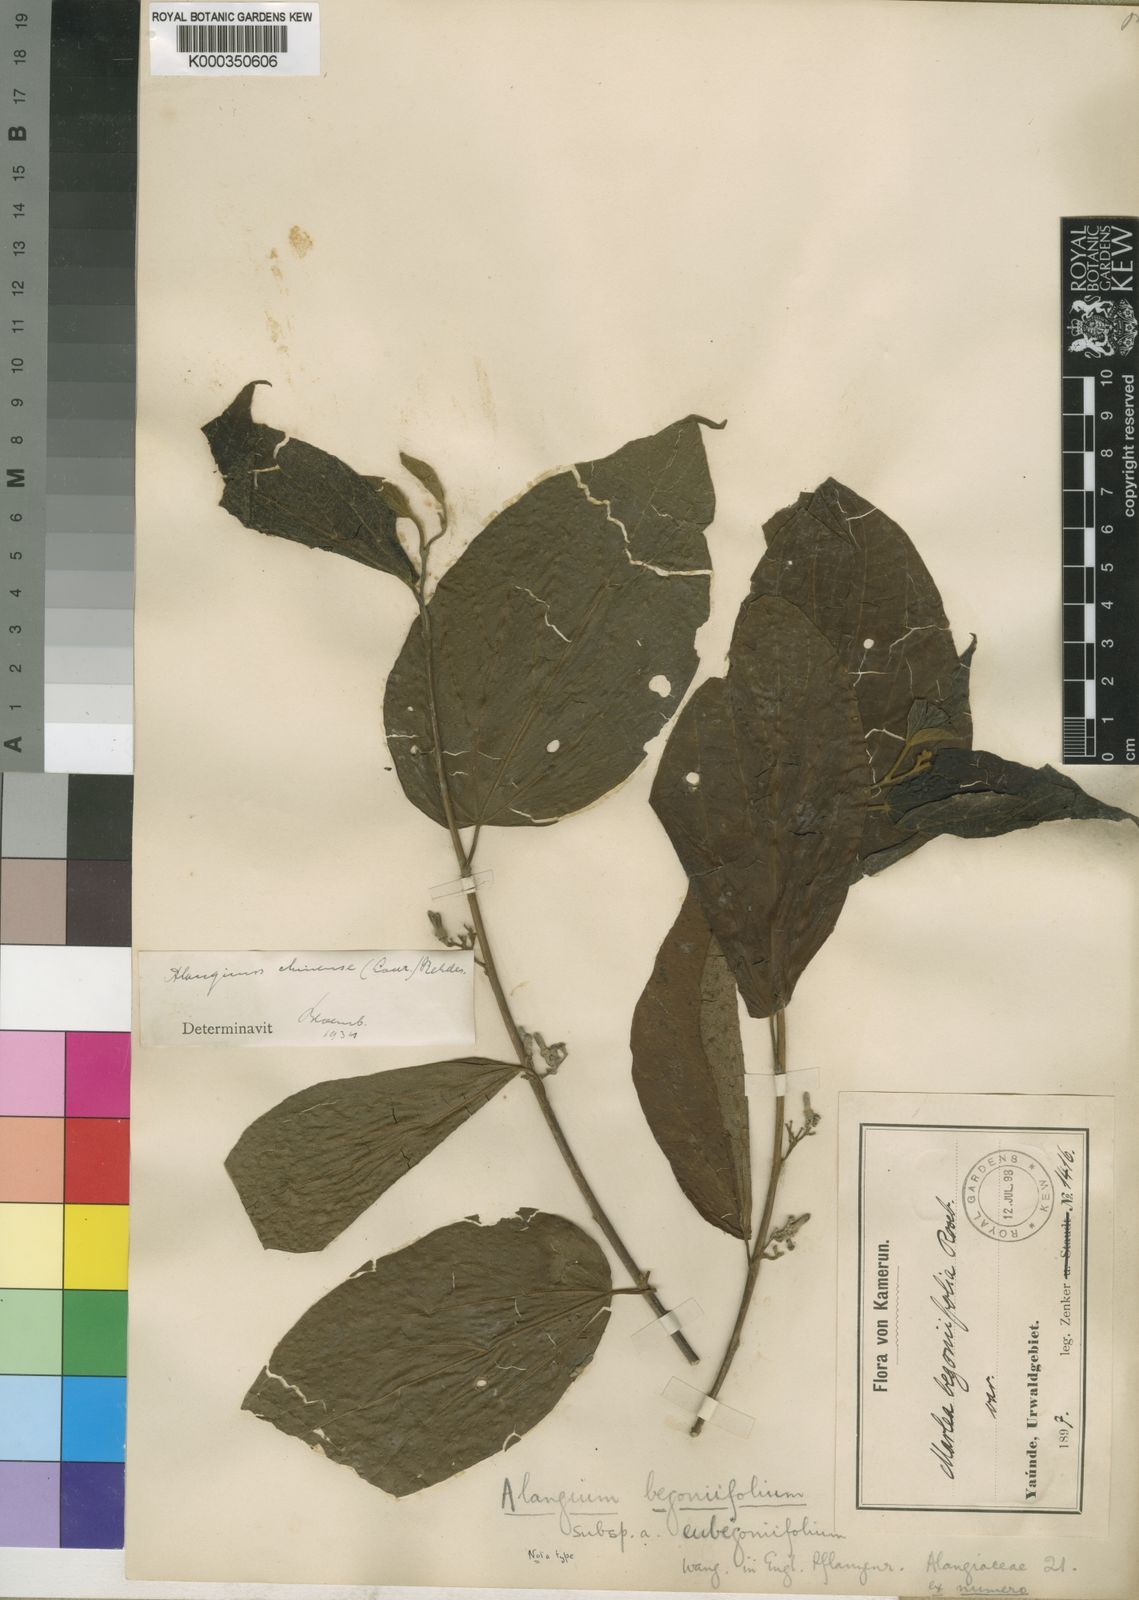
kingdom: Plantae
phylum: Tracheophyta
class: Magnoliopsida
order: Cornales
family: Cornaceae
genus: Alangium
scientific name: Alangium
